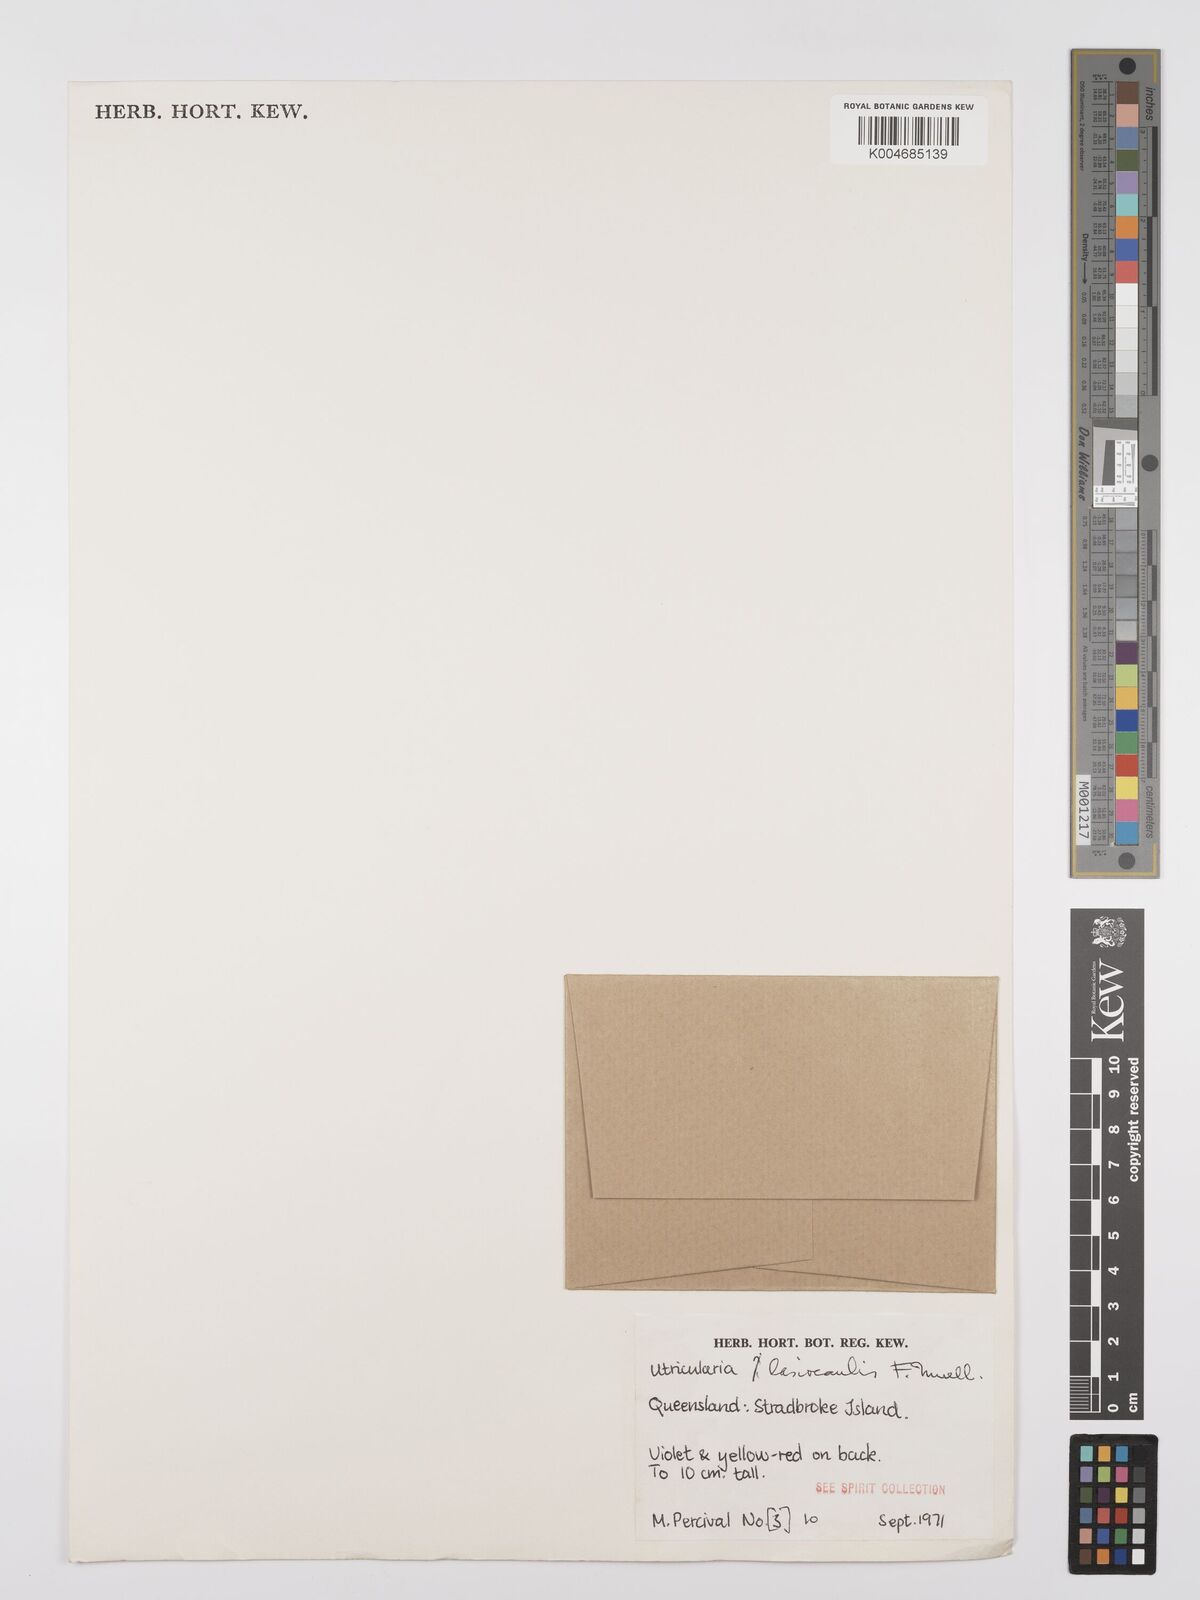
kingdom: Plantae
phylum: Tracheophyta
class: Magnoliopsida
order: Lamiales
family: Lentibulariaceae
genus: Utricularia
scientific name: Utricularia lasiocaulis
